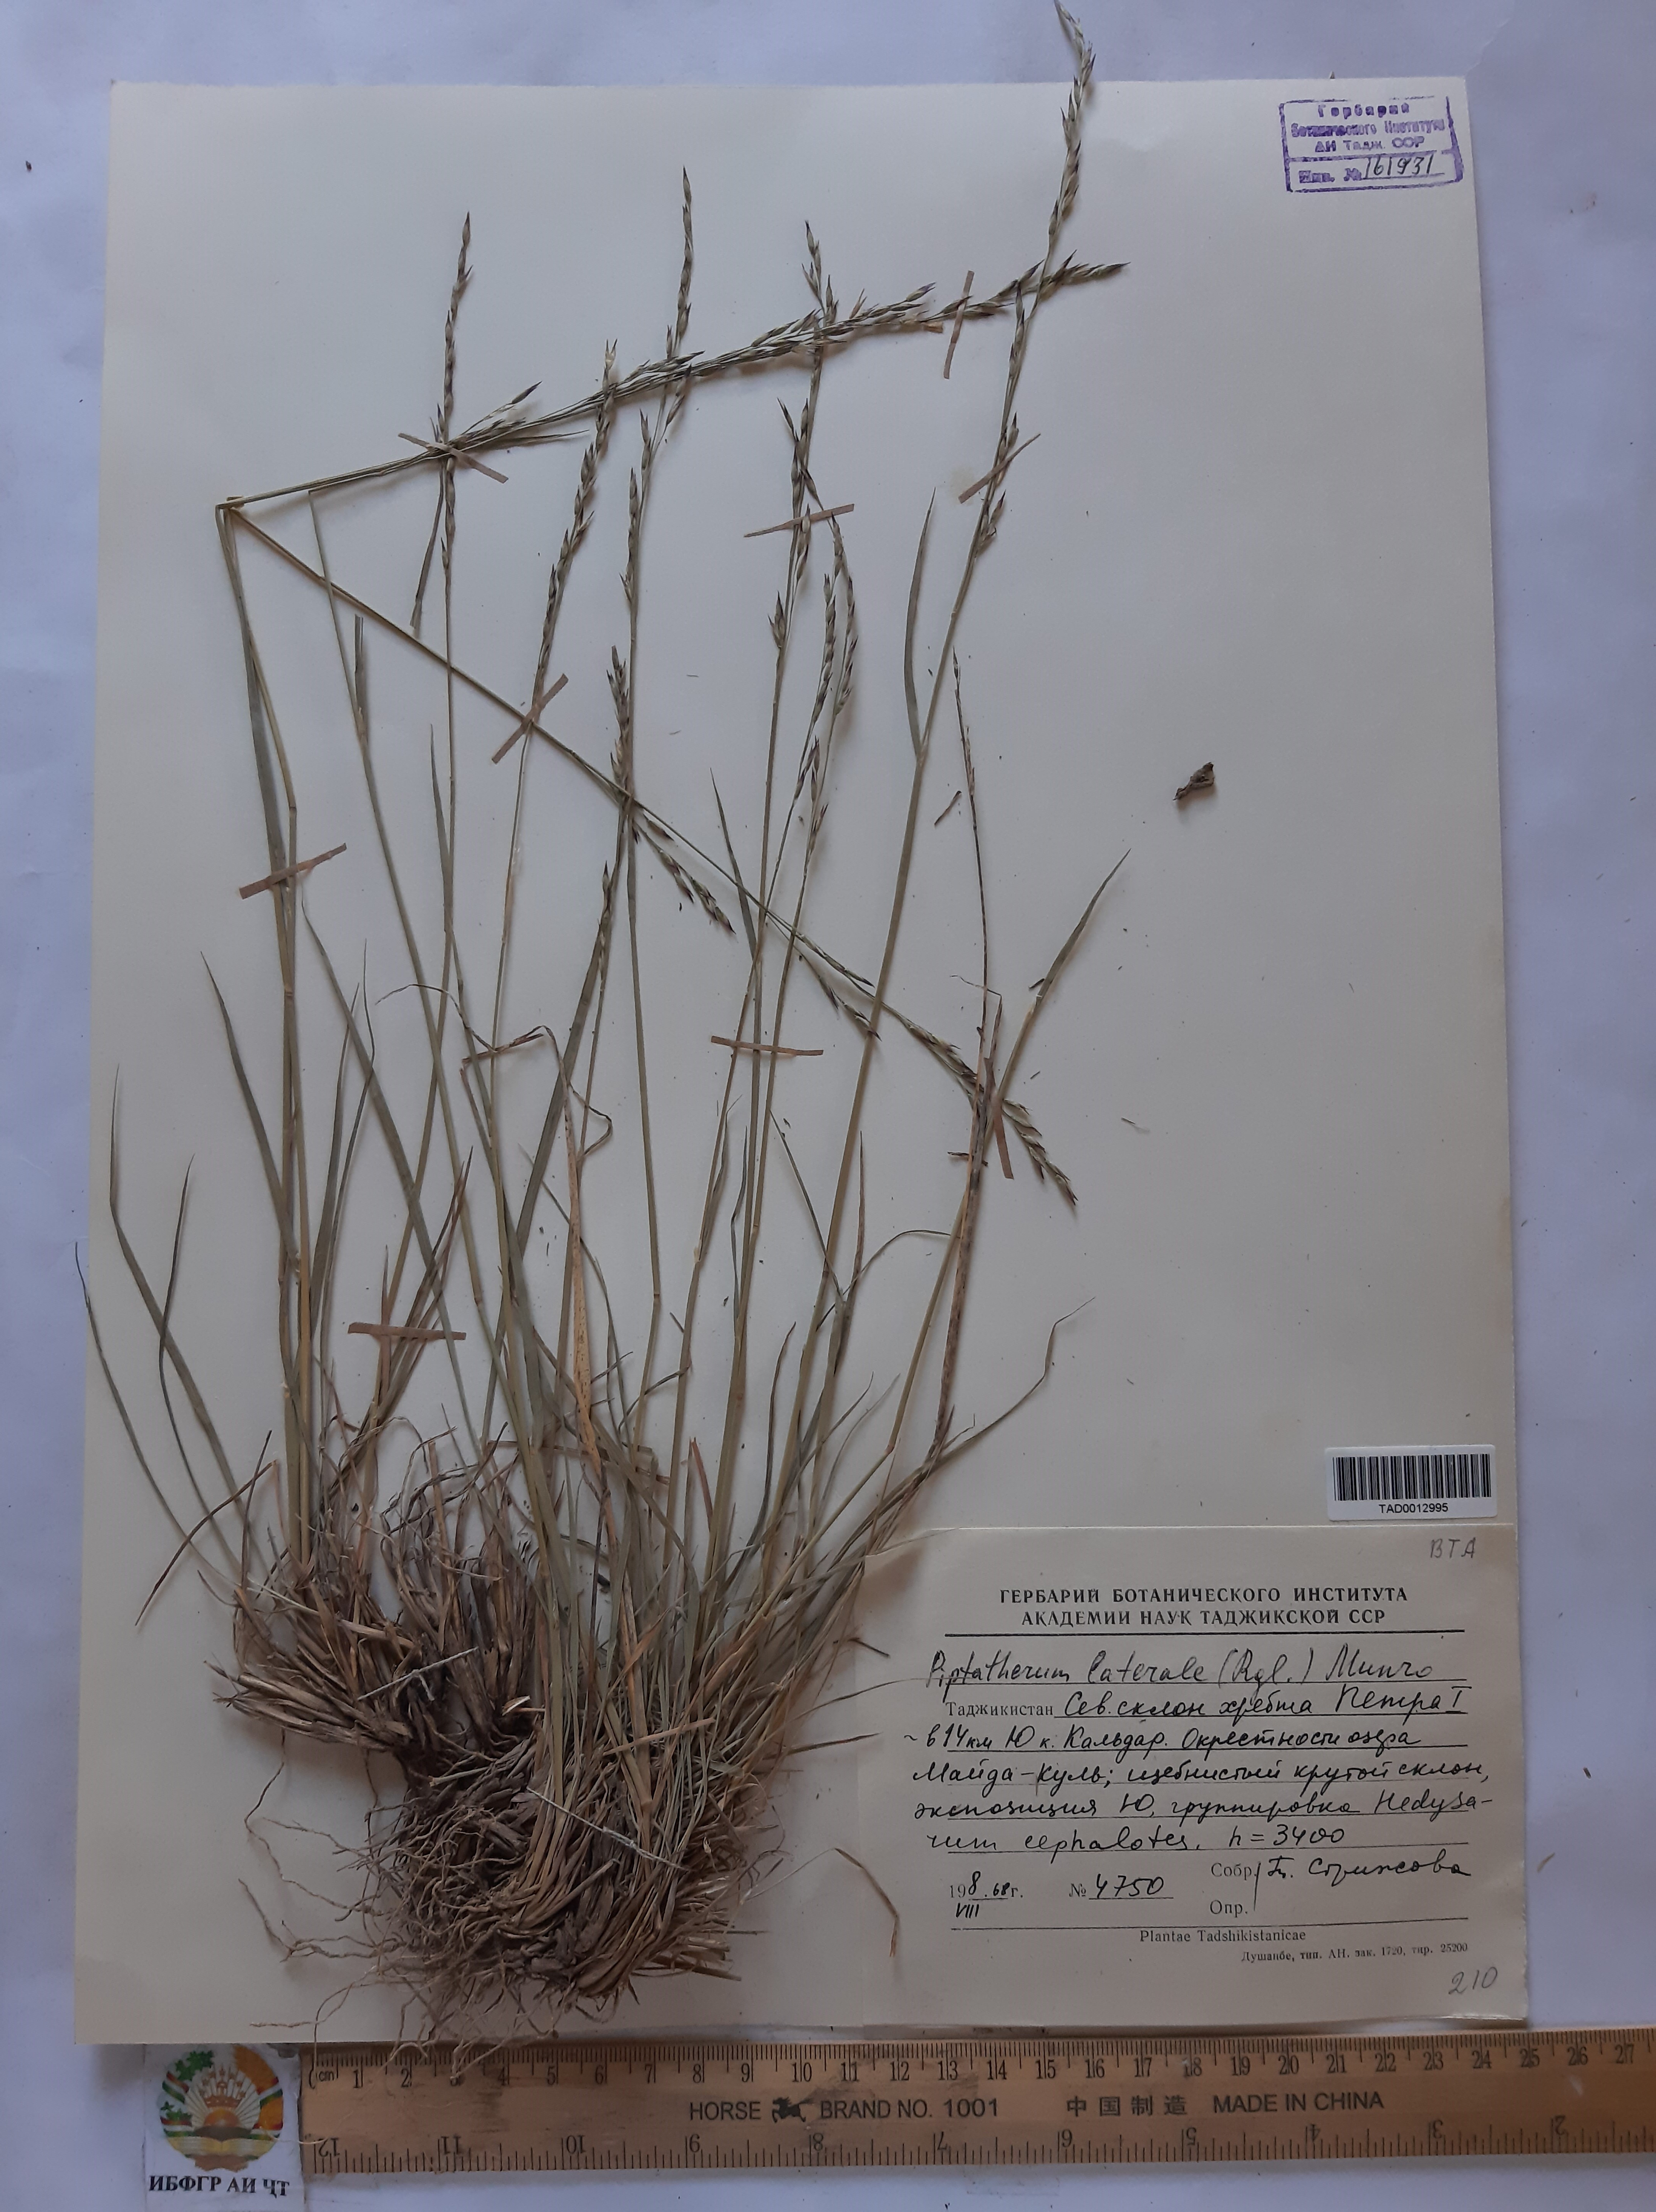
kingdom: Plantae
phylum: Tracheophyta
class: Liliopsida
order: Poales
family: Poaceae
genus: Piptatherum
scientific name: Piptatherum laterale
